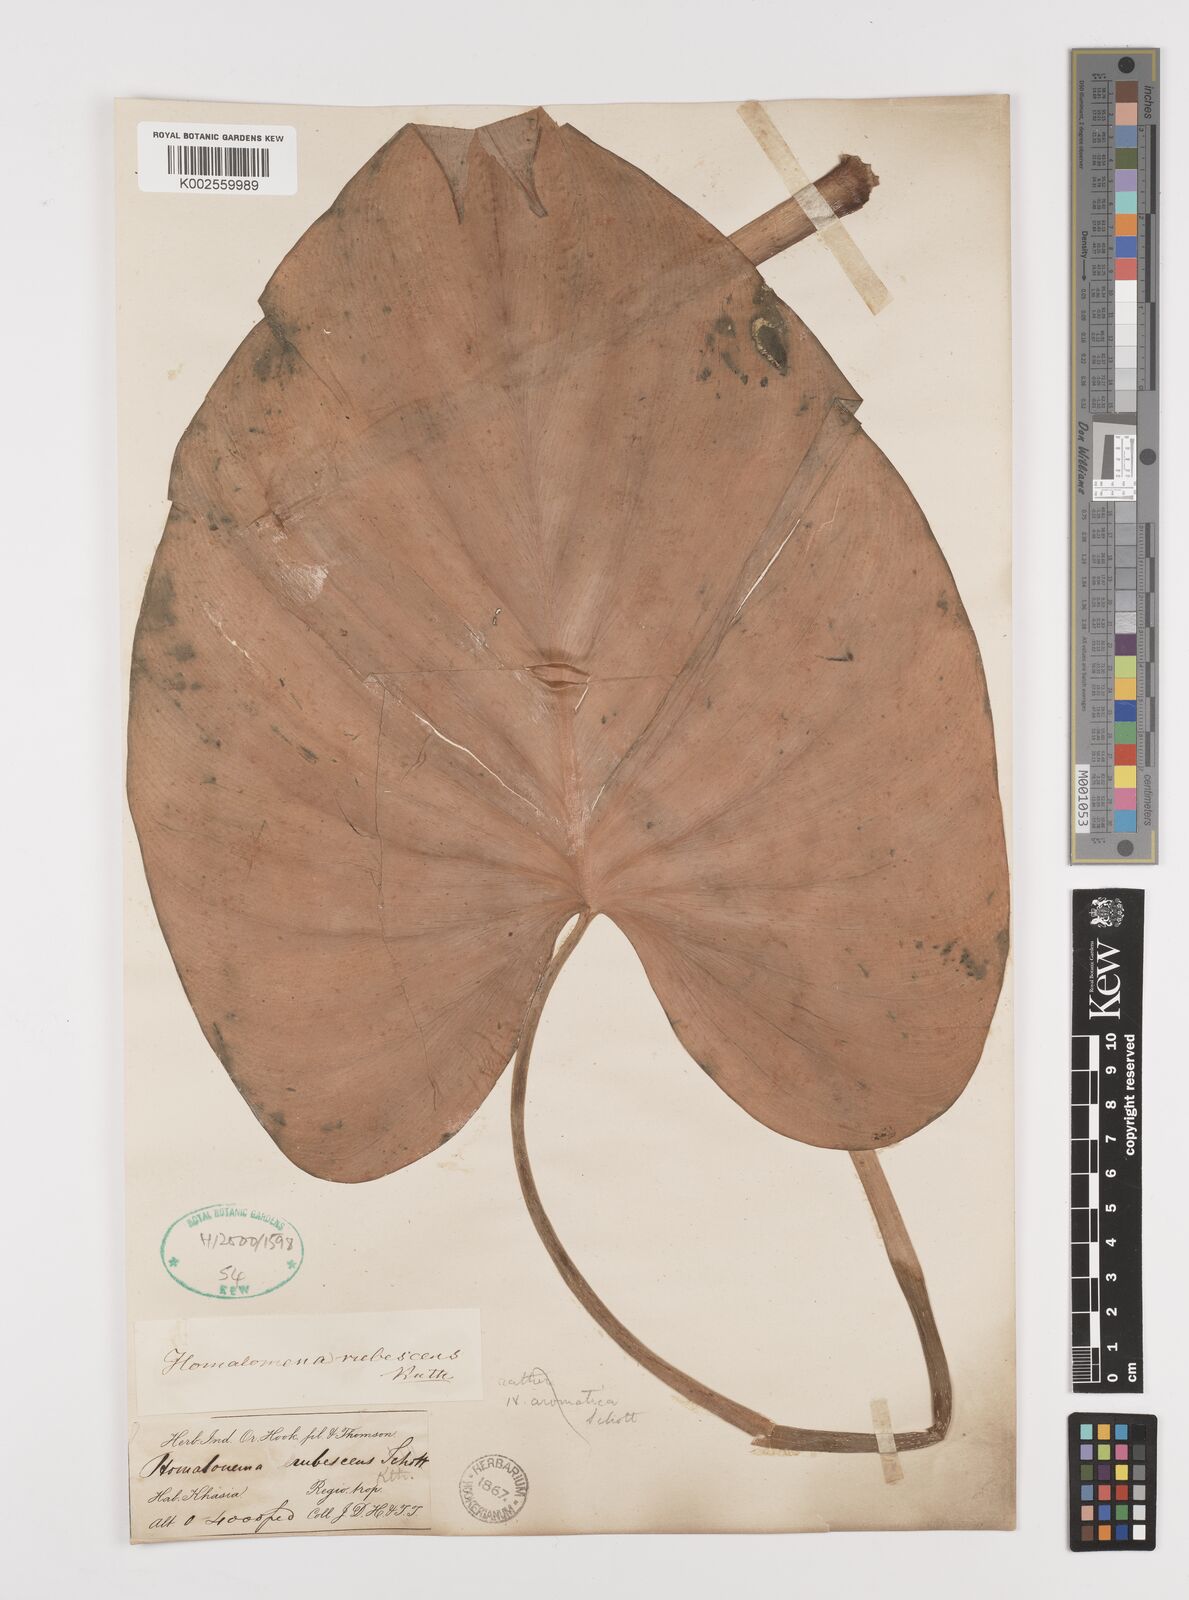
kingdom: Plantae
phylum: Tracheophyta
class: Liliopsida
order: Alismatales
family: Araceae
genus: Homalomena
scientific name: Homalomena rubescens
